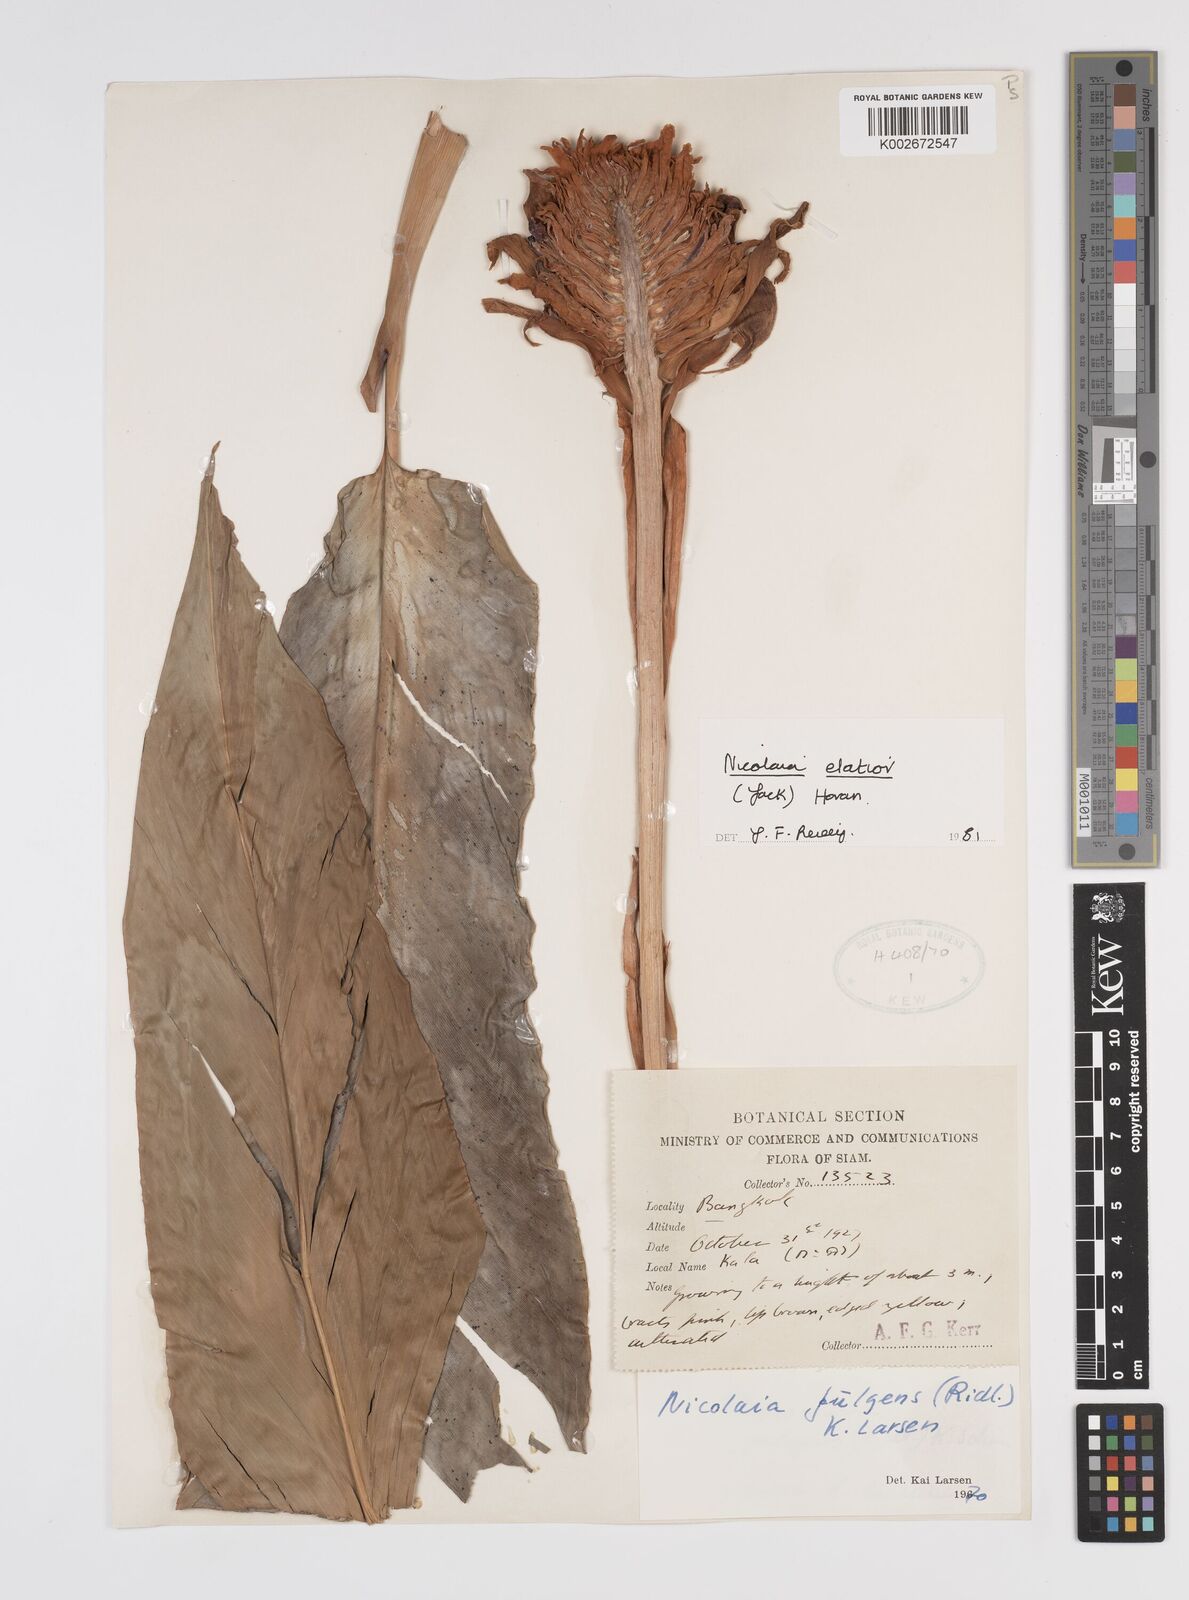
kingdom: Plantae
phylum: Tracheophyta
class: Liliopsida
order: Zingiberales
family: Zingiberaceae
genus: Etlingera
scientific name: Etlingera elatior
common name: Philippine waxflower
